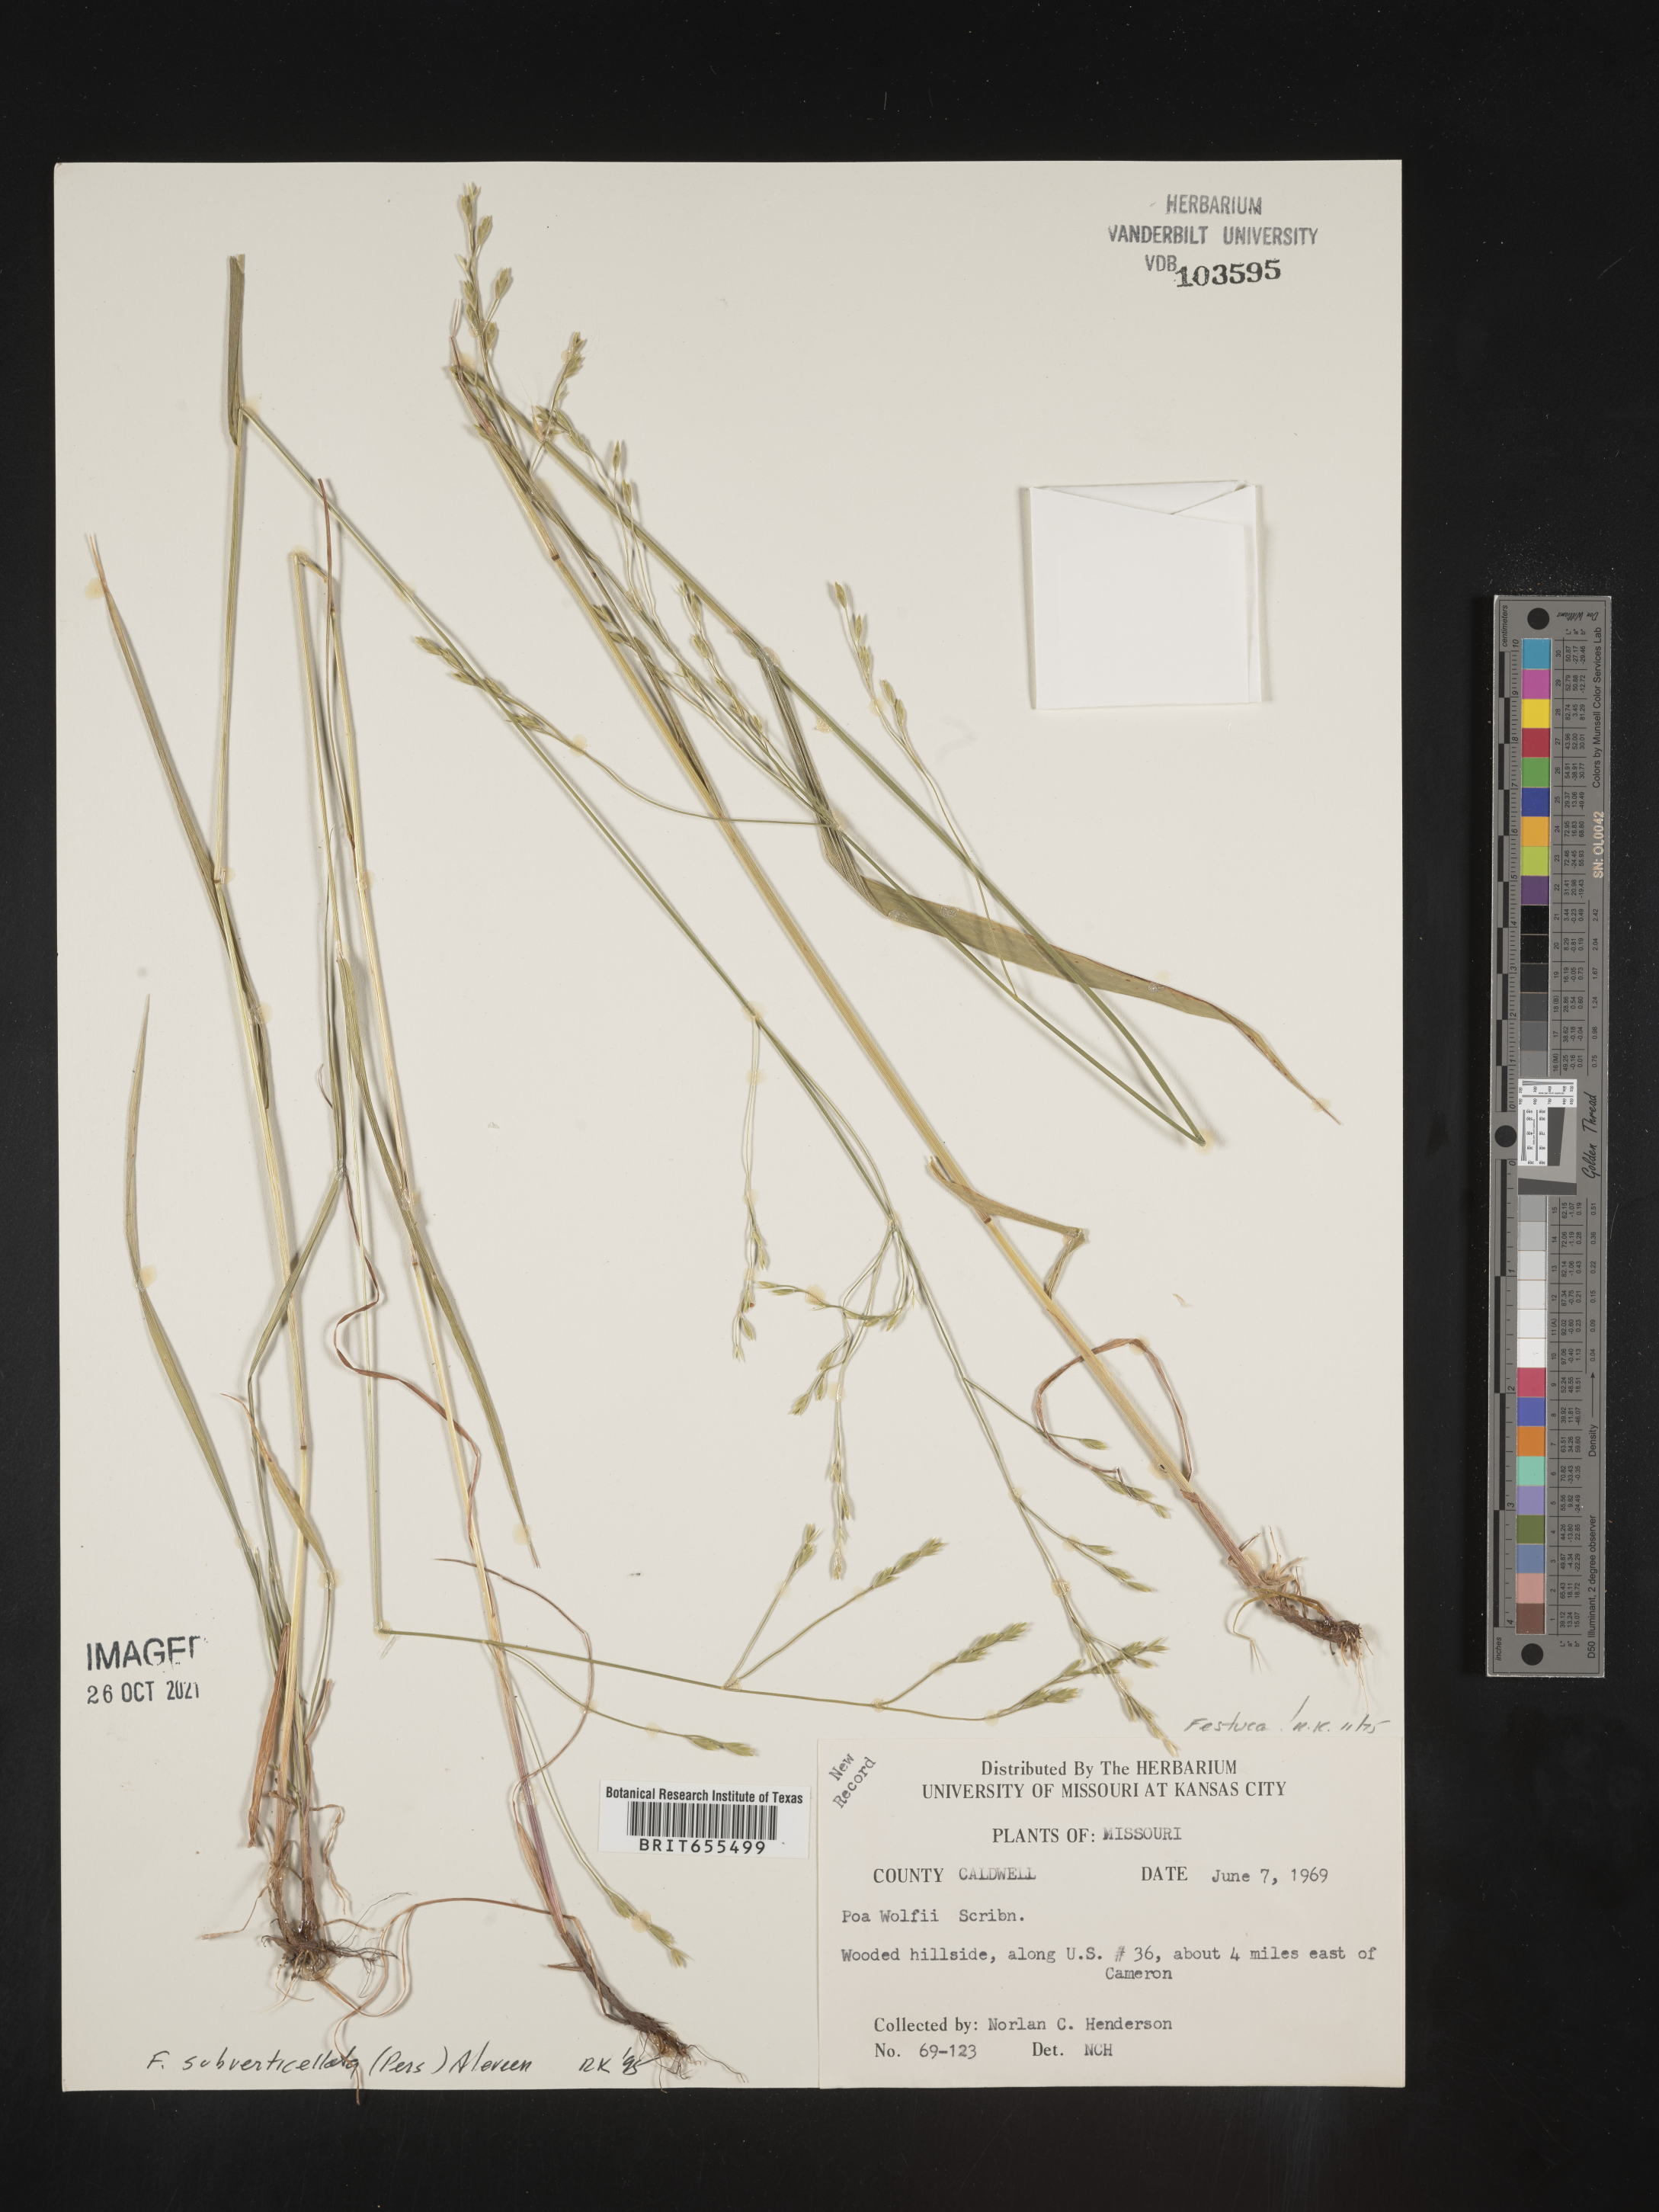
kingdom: Plantae
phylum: Tracheophyta
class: Liliopsida
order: Poales
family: Poaceae
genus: Festuca
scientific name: Festuca
